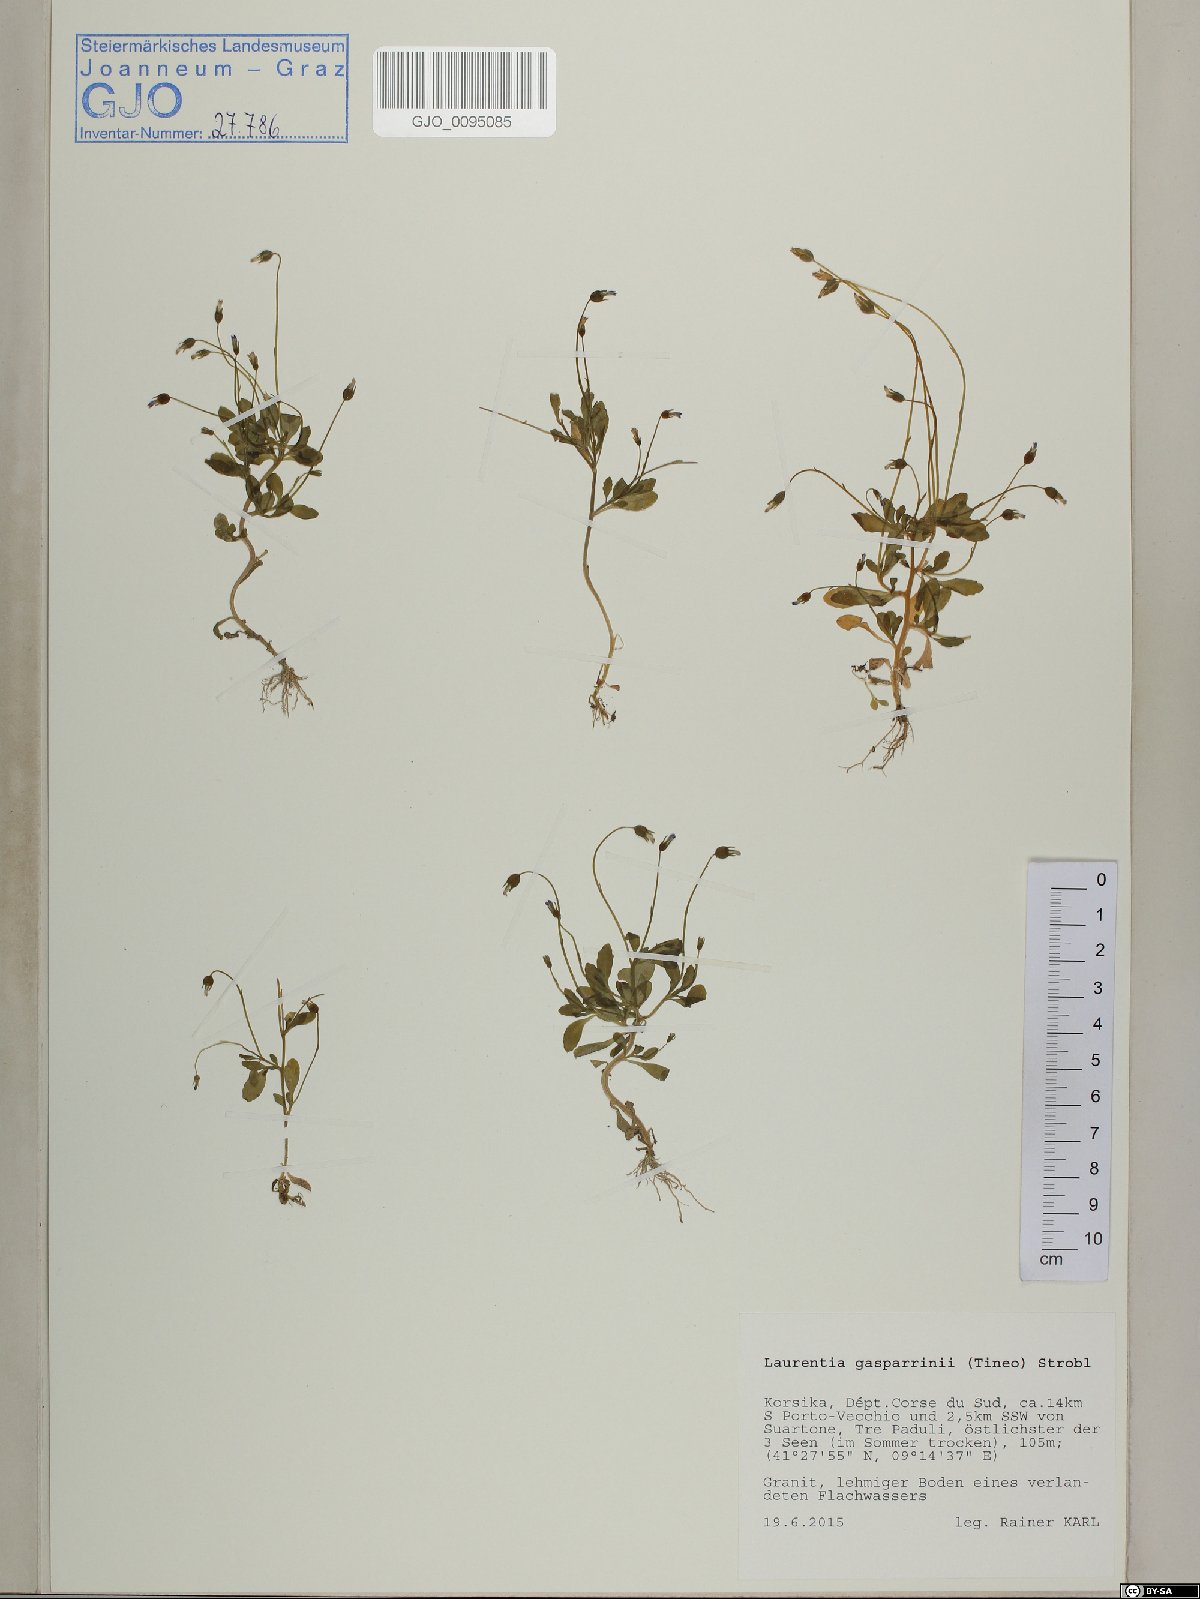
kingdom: Plantae
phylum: Tracheophyta
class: Magnoliopsida
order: Asterales
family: Campanulaceae
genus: Solenopsis
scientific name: Solenopsis laurentia
